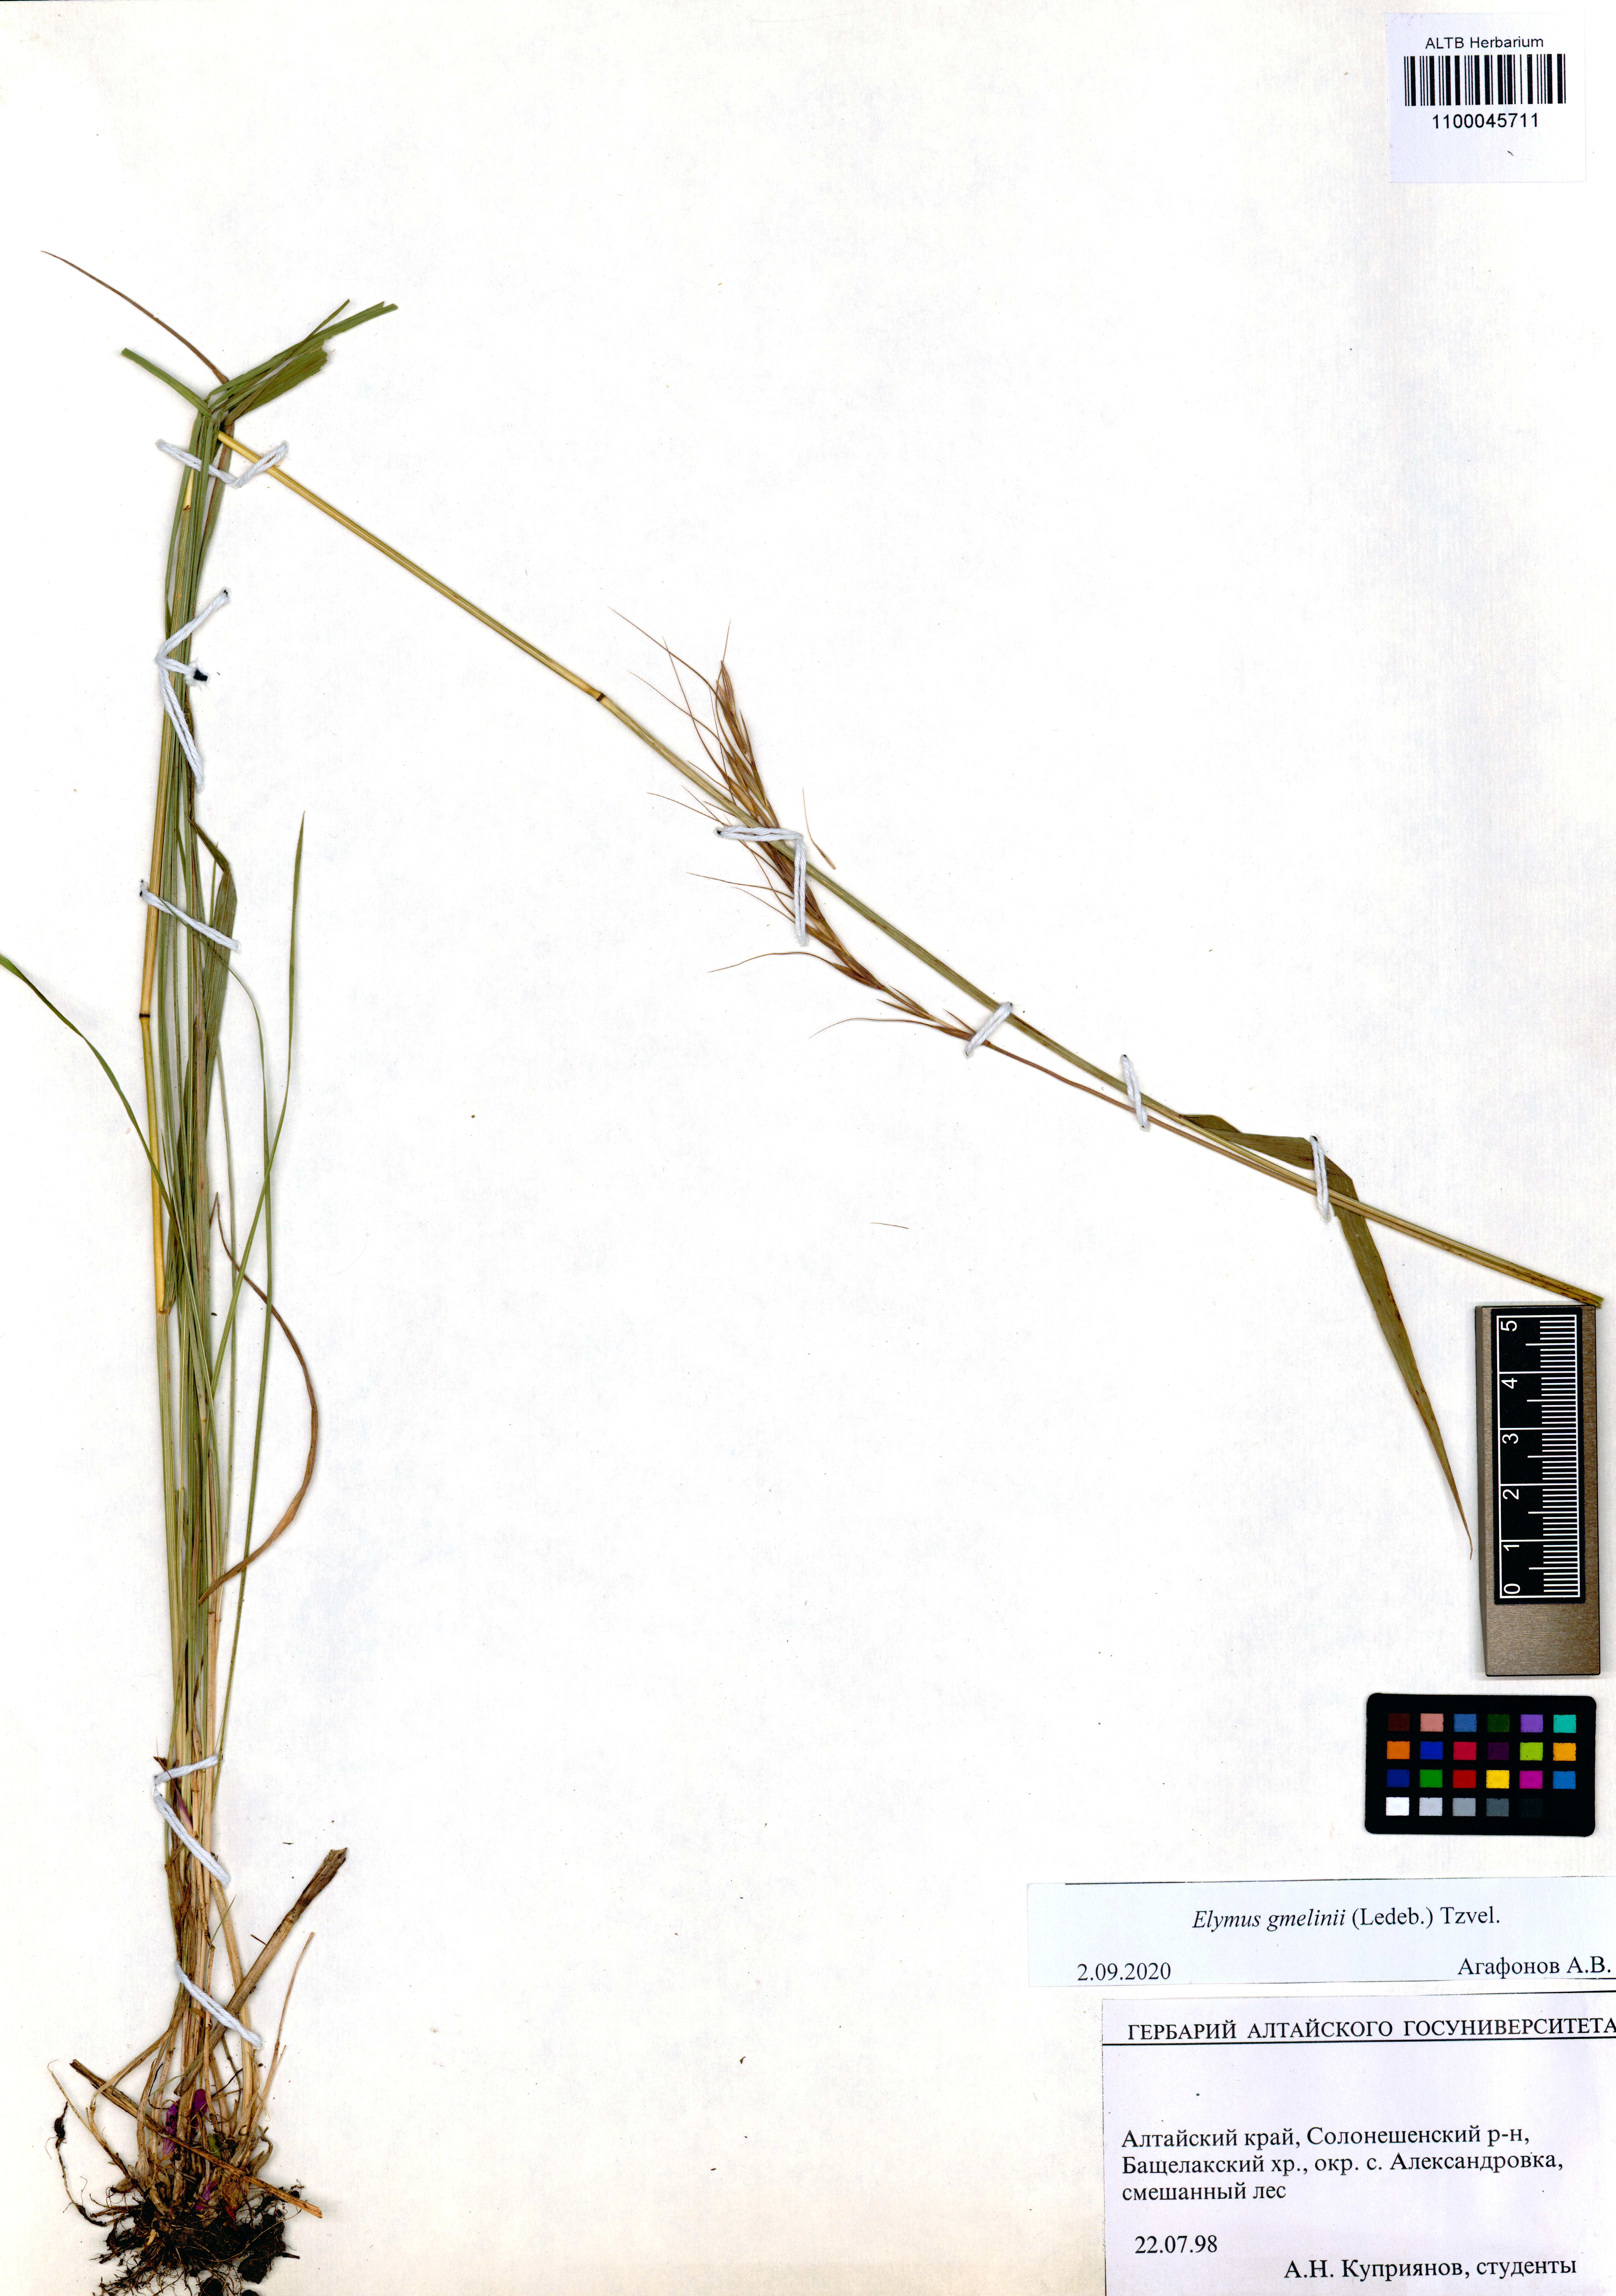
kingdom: Plantae
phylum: Tracheophyta
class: Liliopsida
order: Poales
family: Poaceae
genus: Elymus
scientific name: Elymus gmelinii
